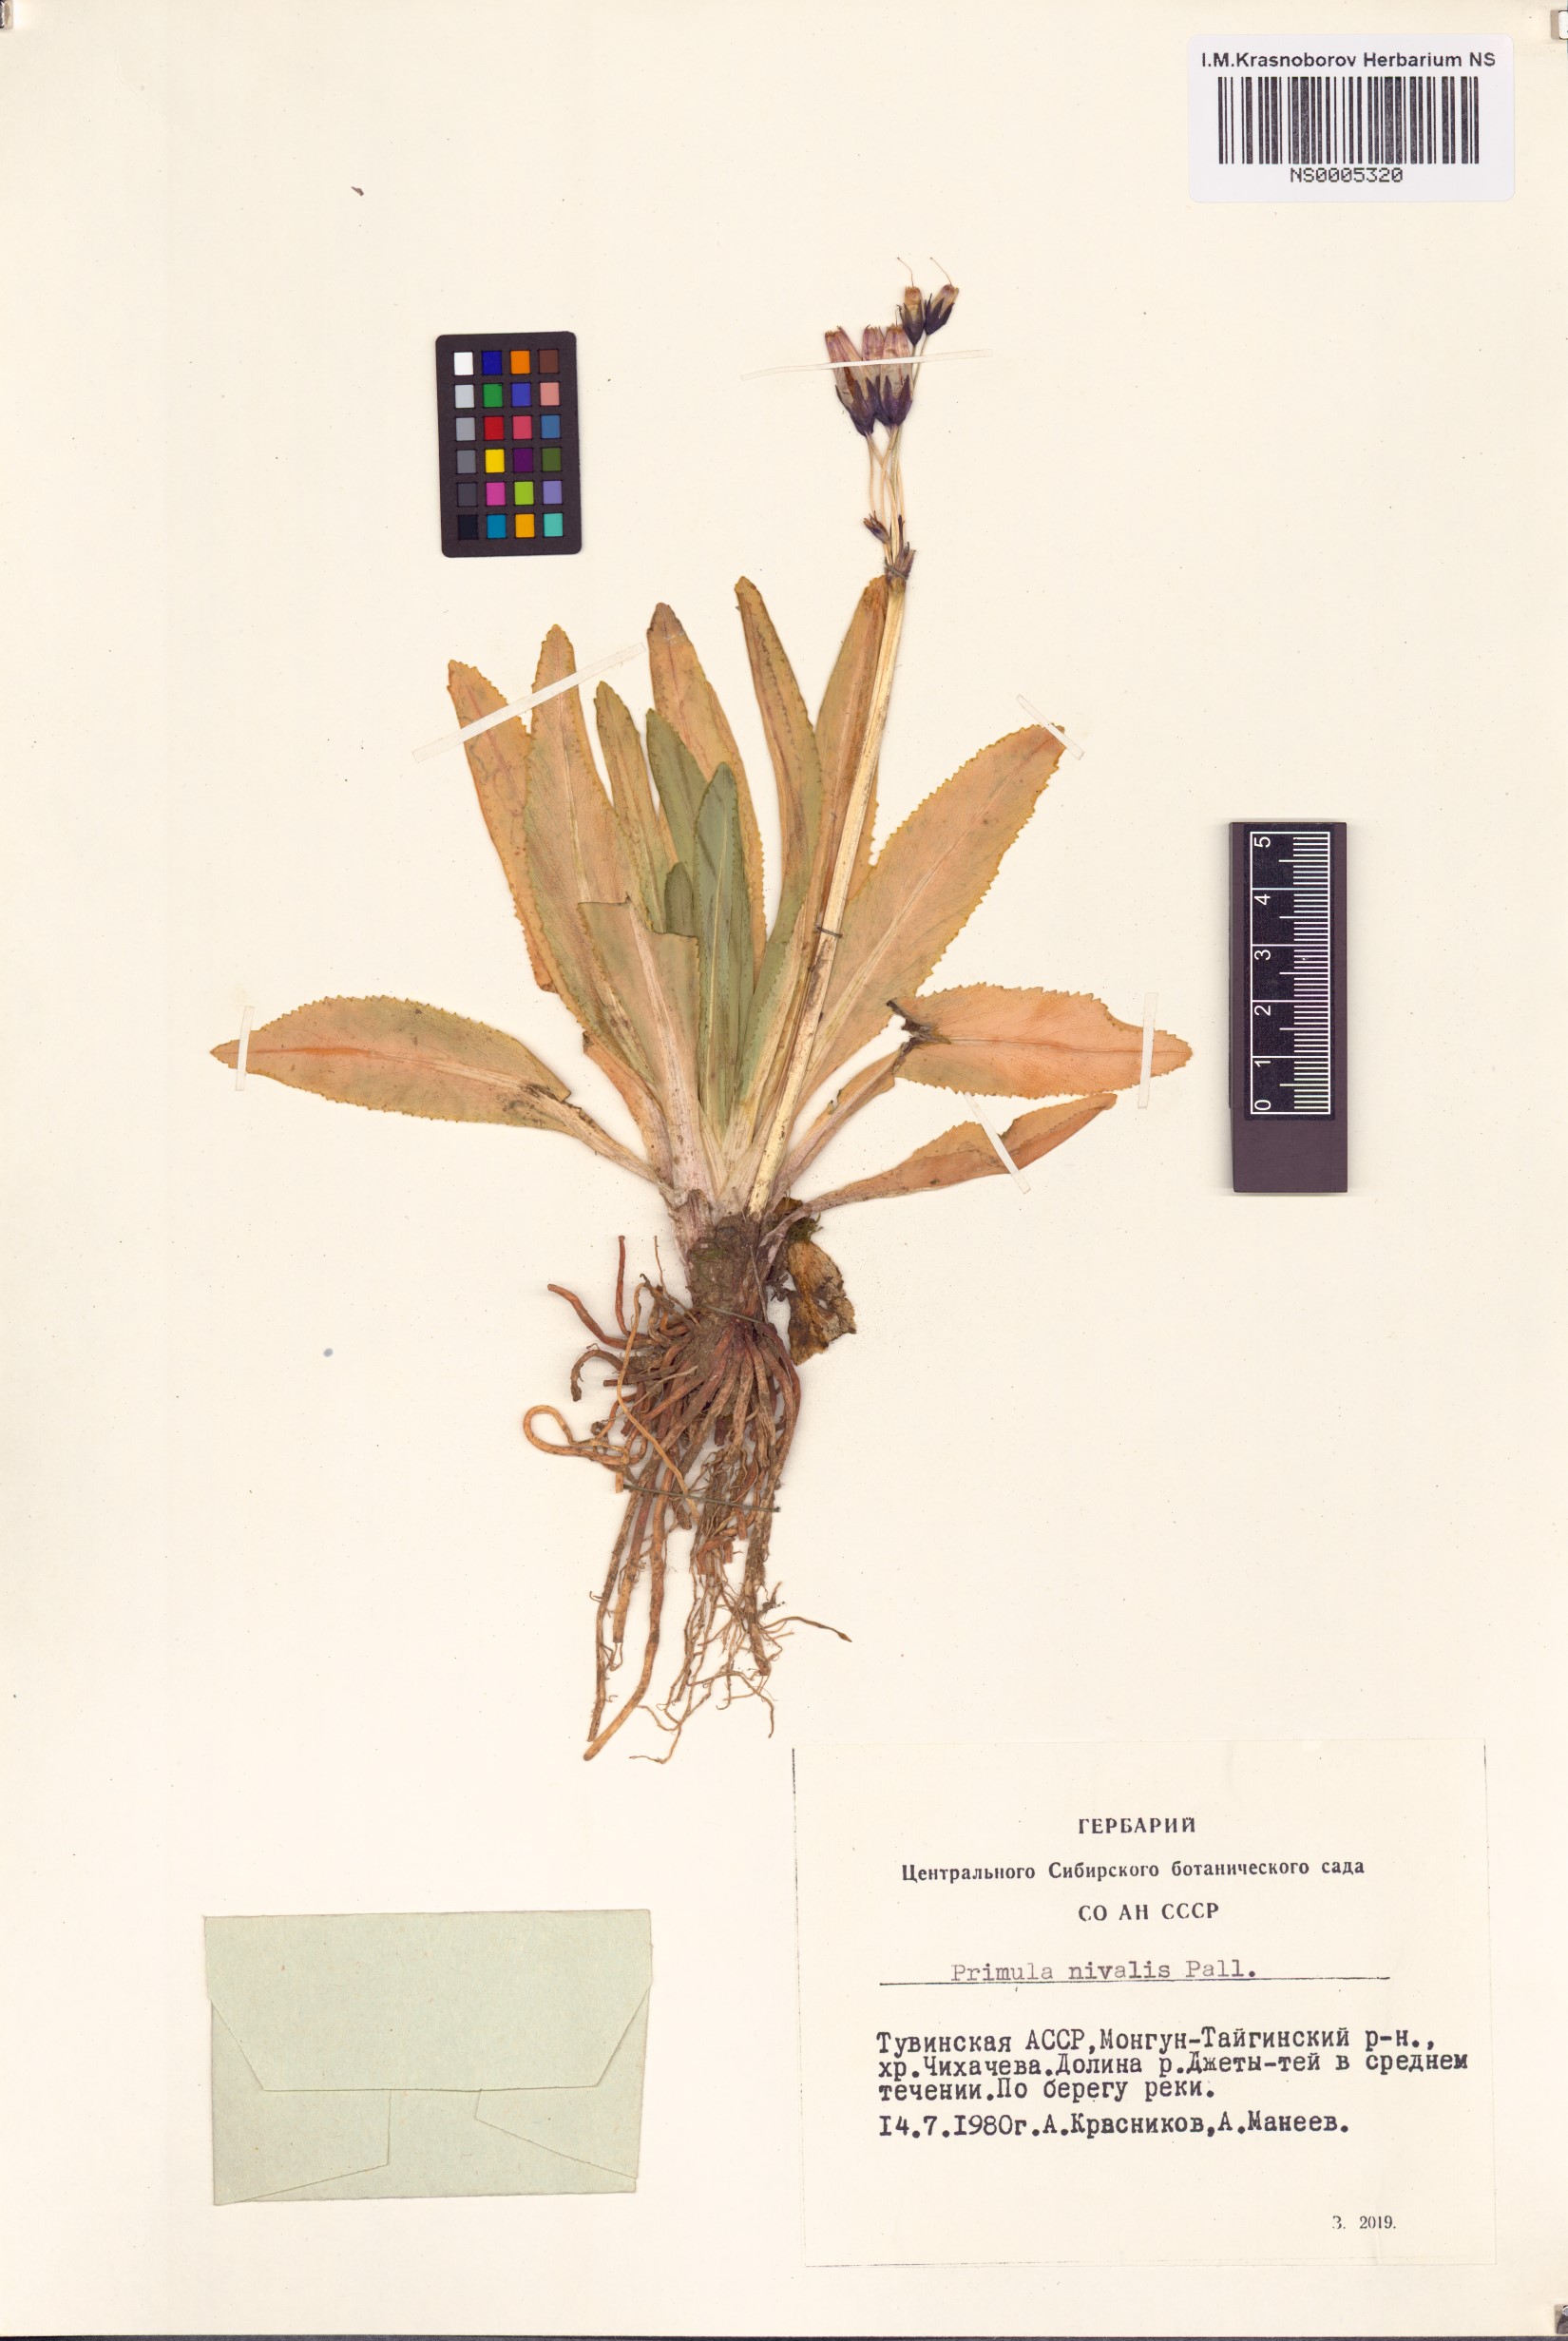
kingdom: Plantae
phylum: Tracheophyta
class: Magnoliopsida
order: Ericales
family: Primulaceae
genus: Primula
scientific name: Primula nivalis
